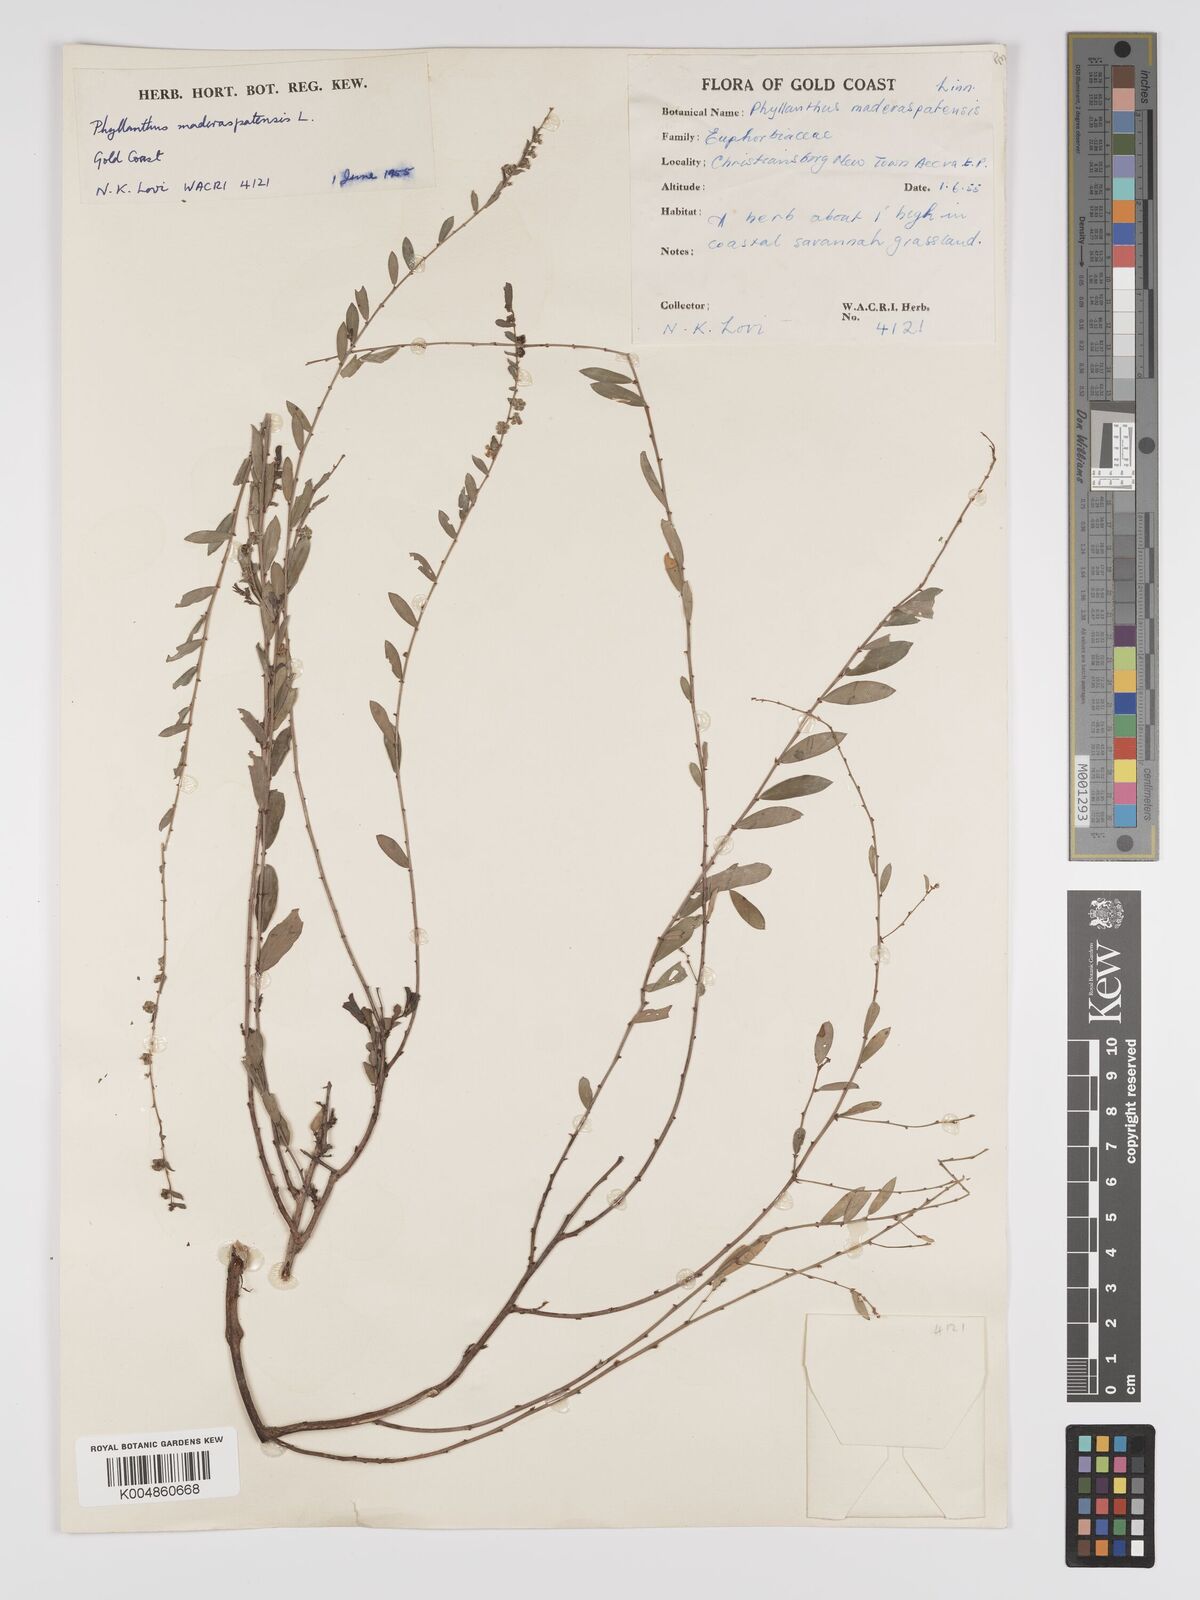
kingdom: Plantae
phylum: Tracheophyta
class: Magnoliopsida
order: Malpighiales
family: Phyllanthaceae
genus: Phyllanthus
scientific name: Phyllanthus
